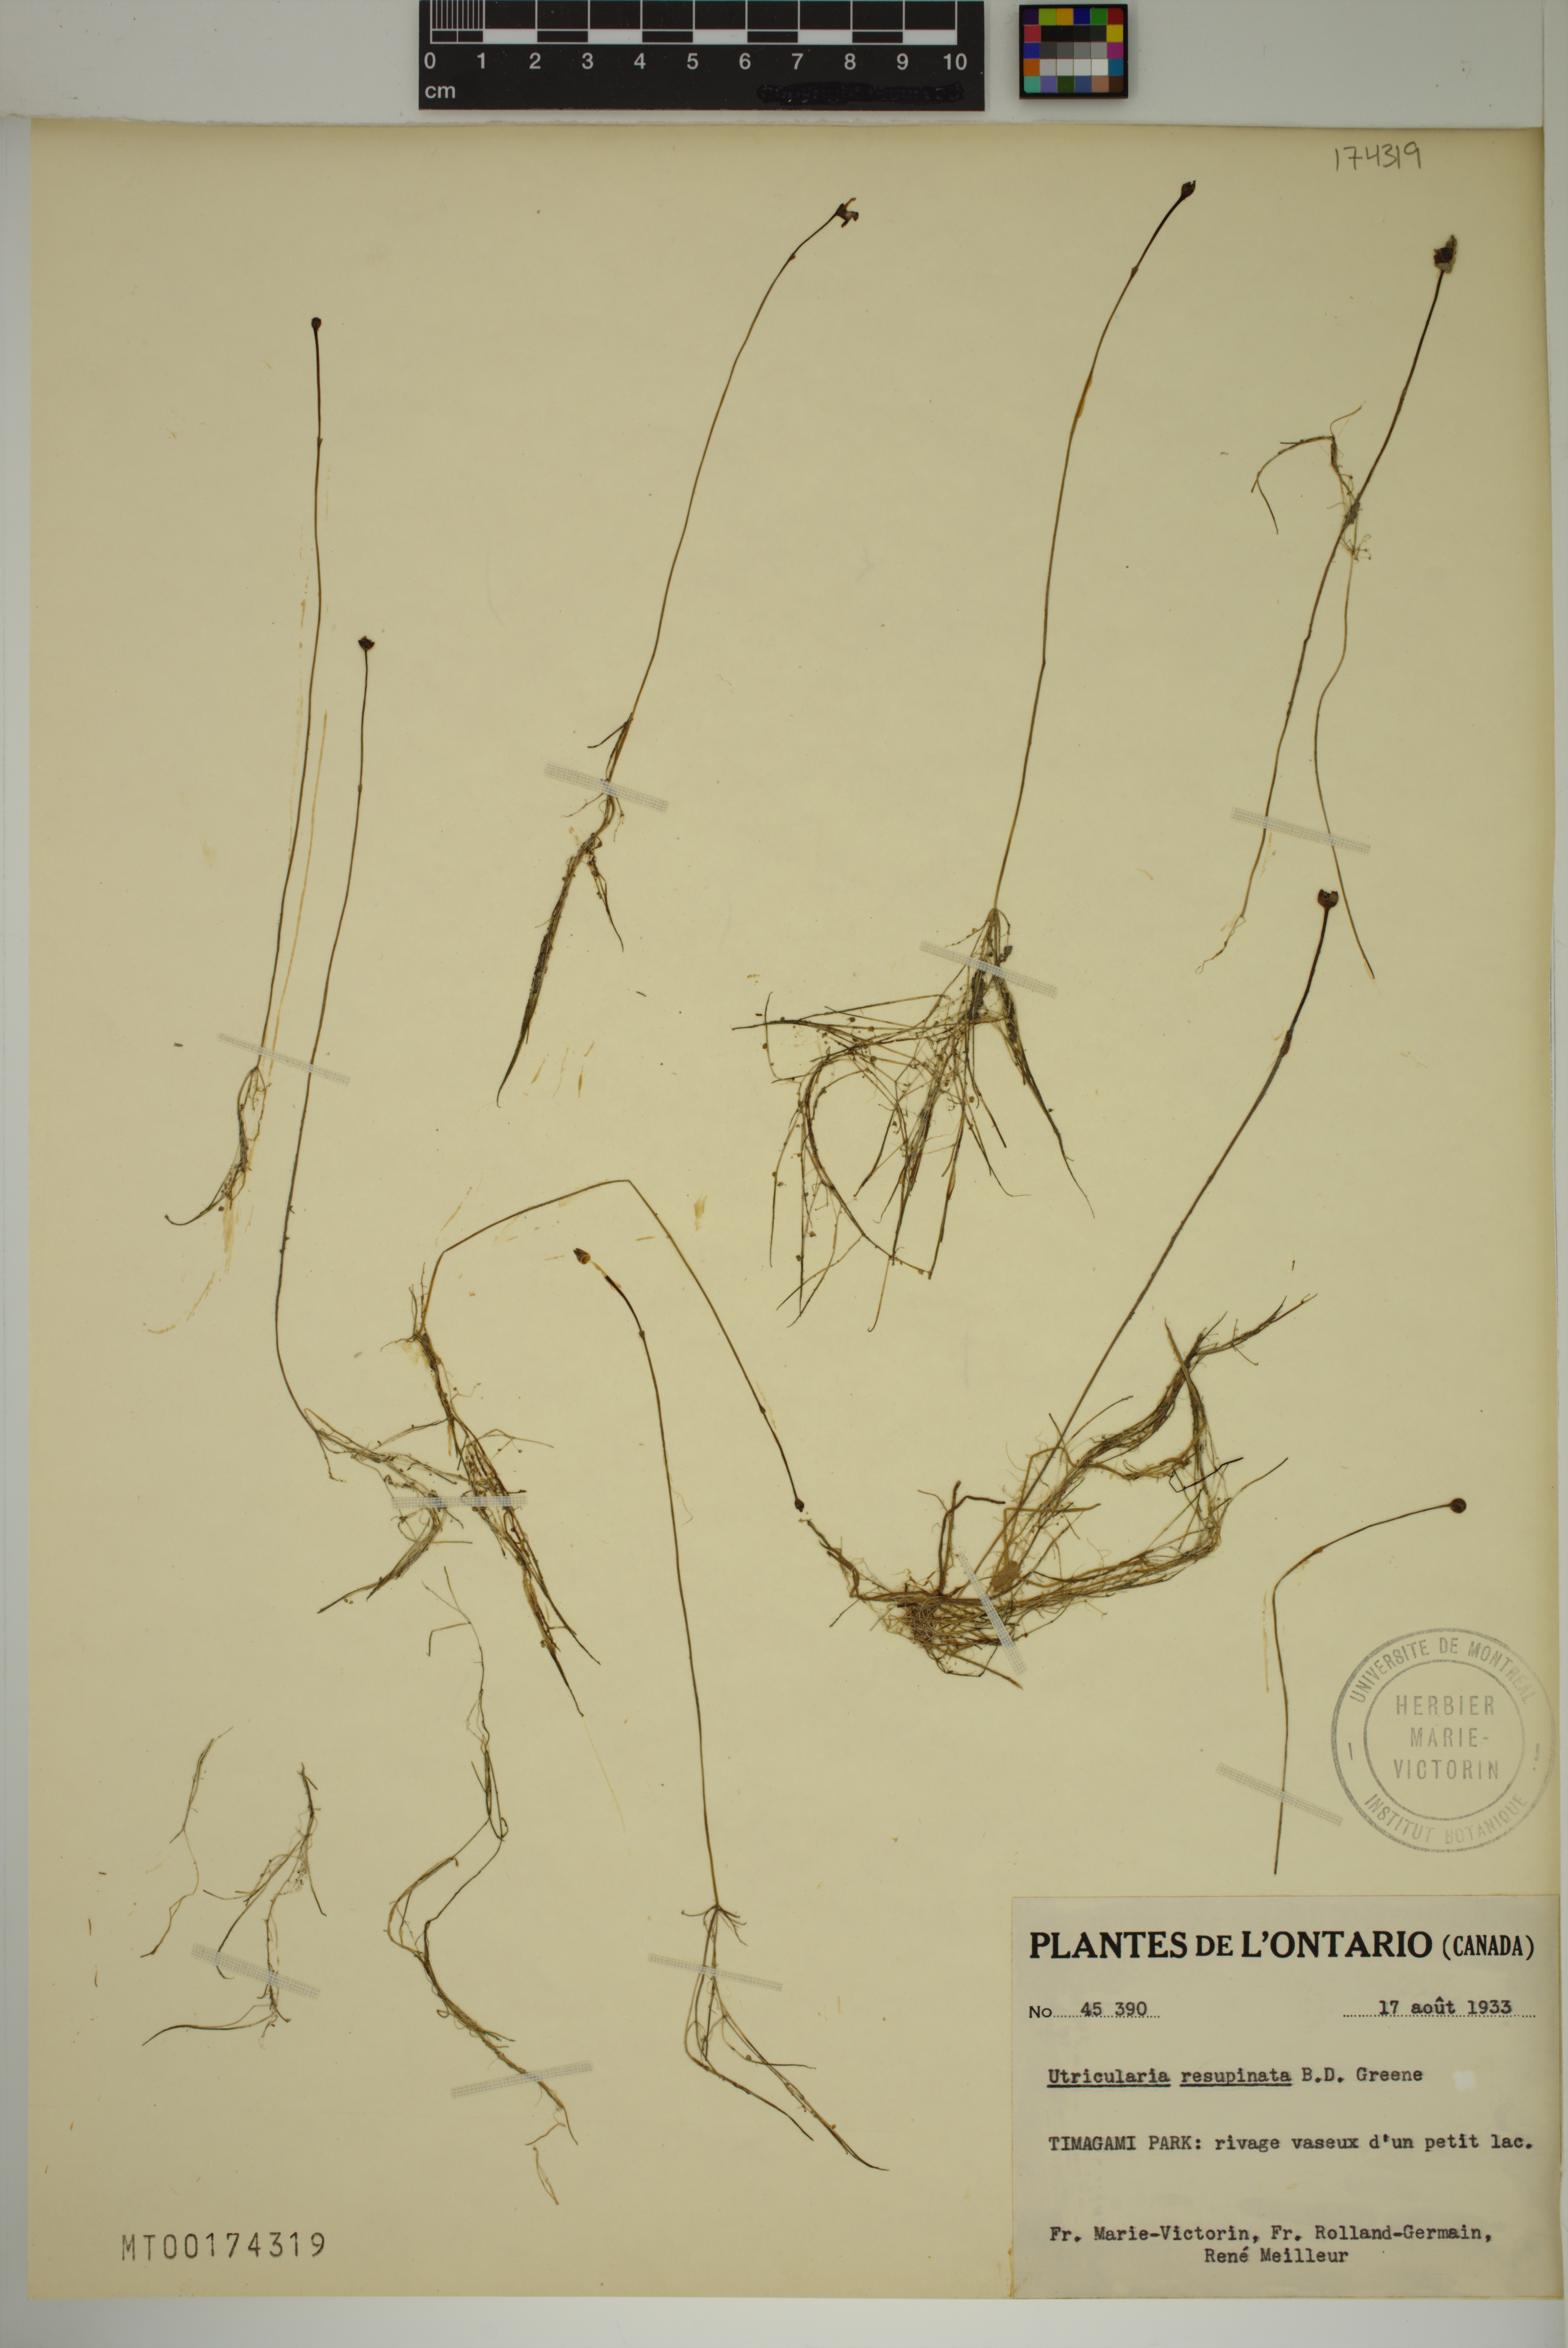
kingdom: Plantae
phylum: Tracheophyta
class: Magnoliopsida
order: Lamiales
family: Lentibulariaceae
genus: Utricularia
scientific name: Utricularia resupinata
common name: Northeastern bladderwort
